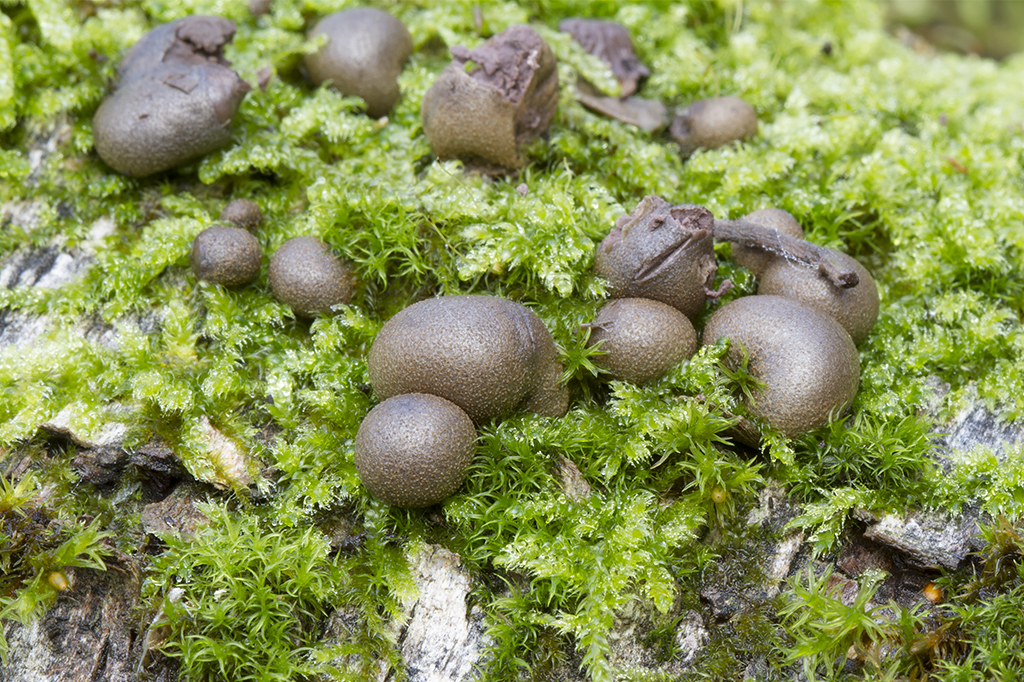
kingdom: Protozoa
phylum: Mycetozoa
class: Myxomycetes
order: Cribrariales
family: Tubiferaceae
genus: Lycogala
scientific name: Lycogala epidendrum
